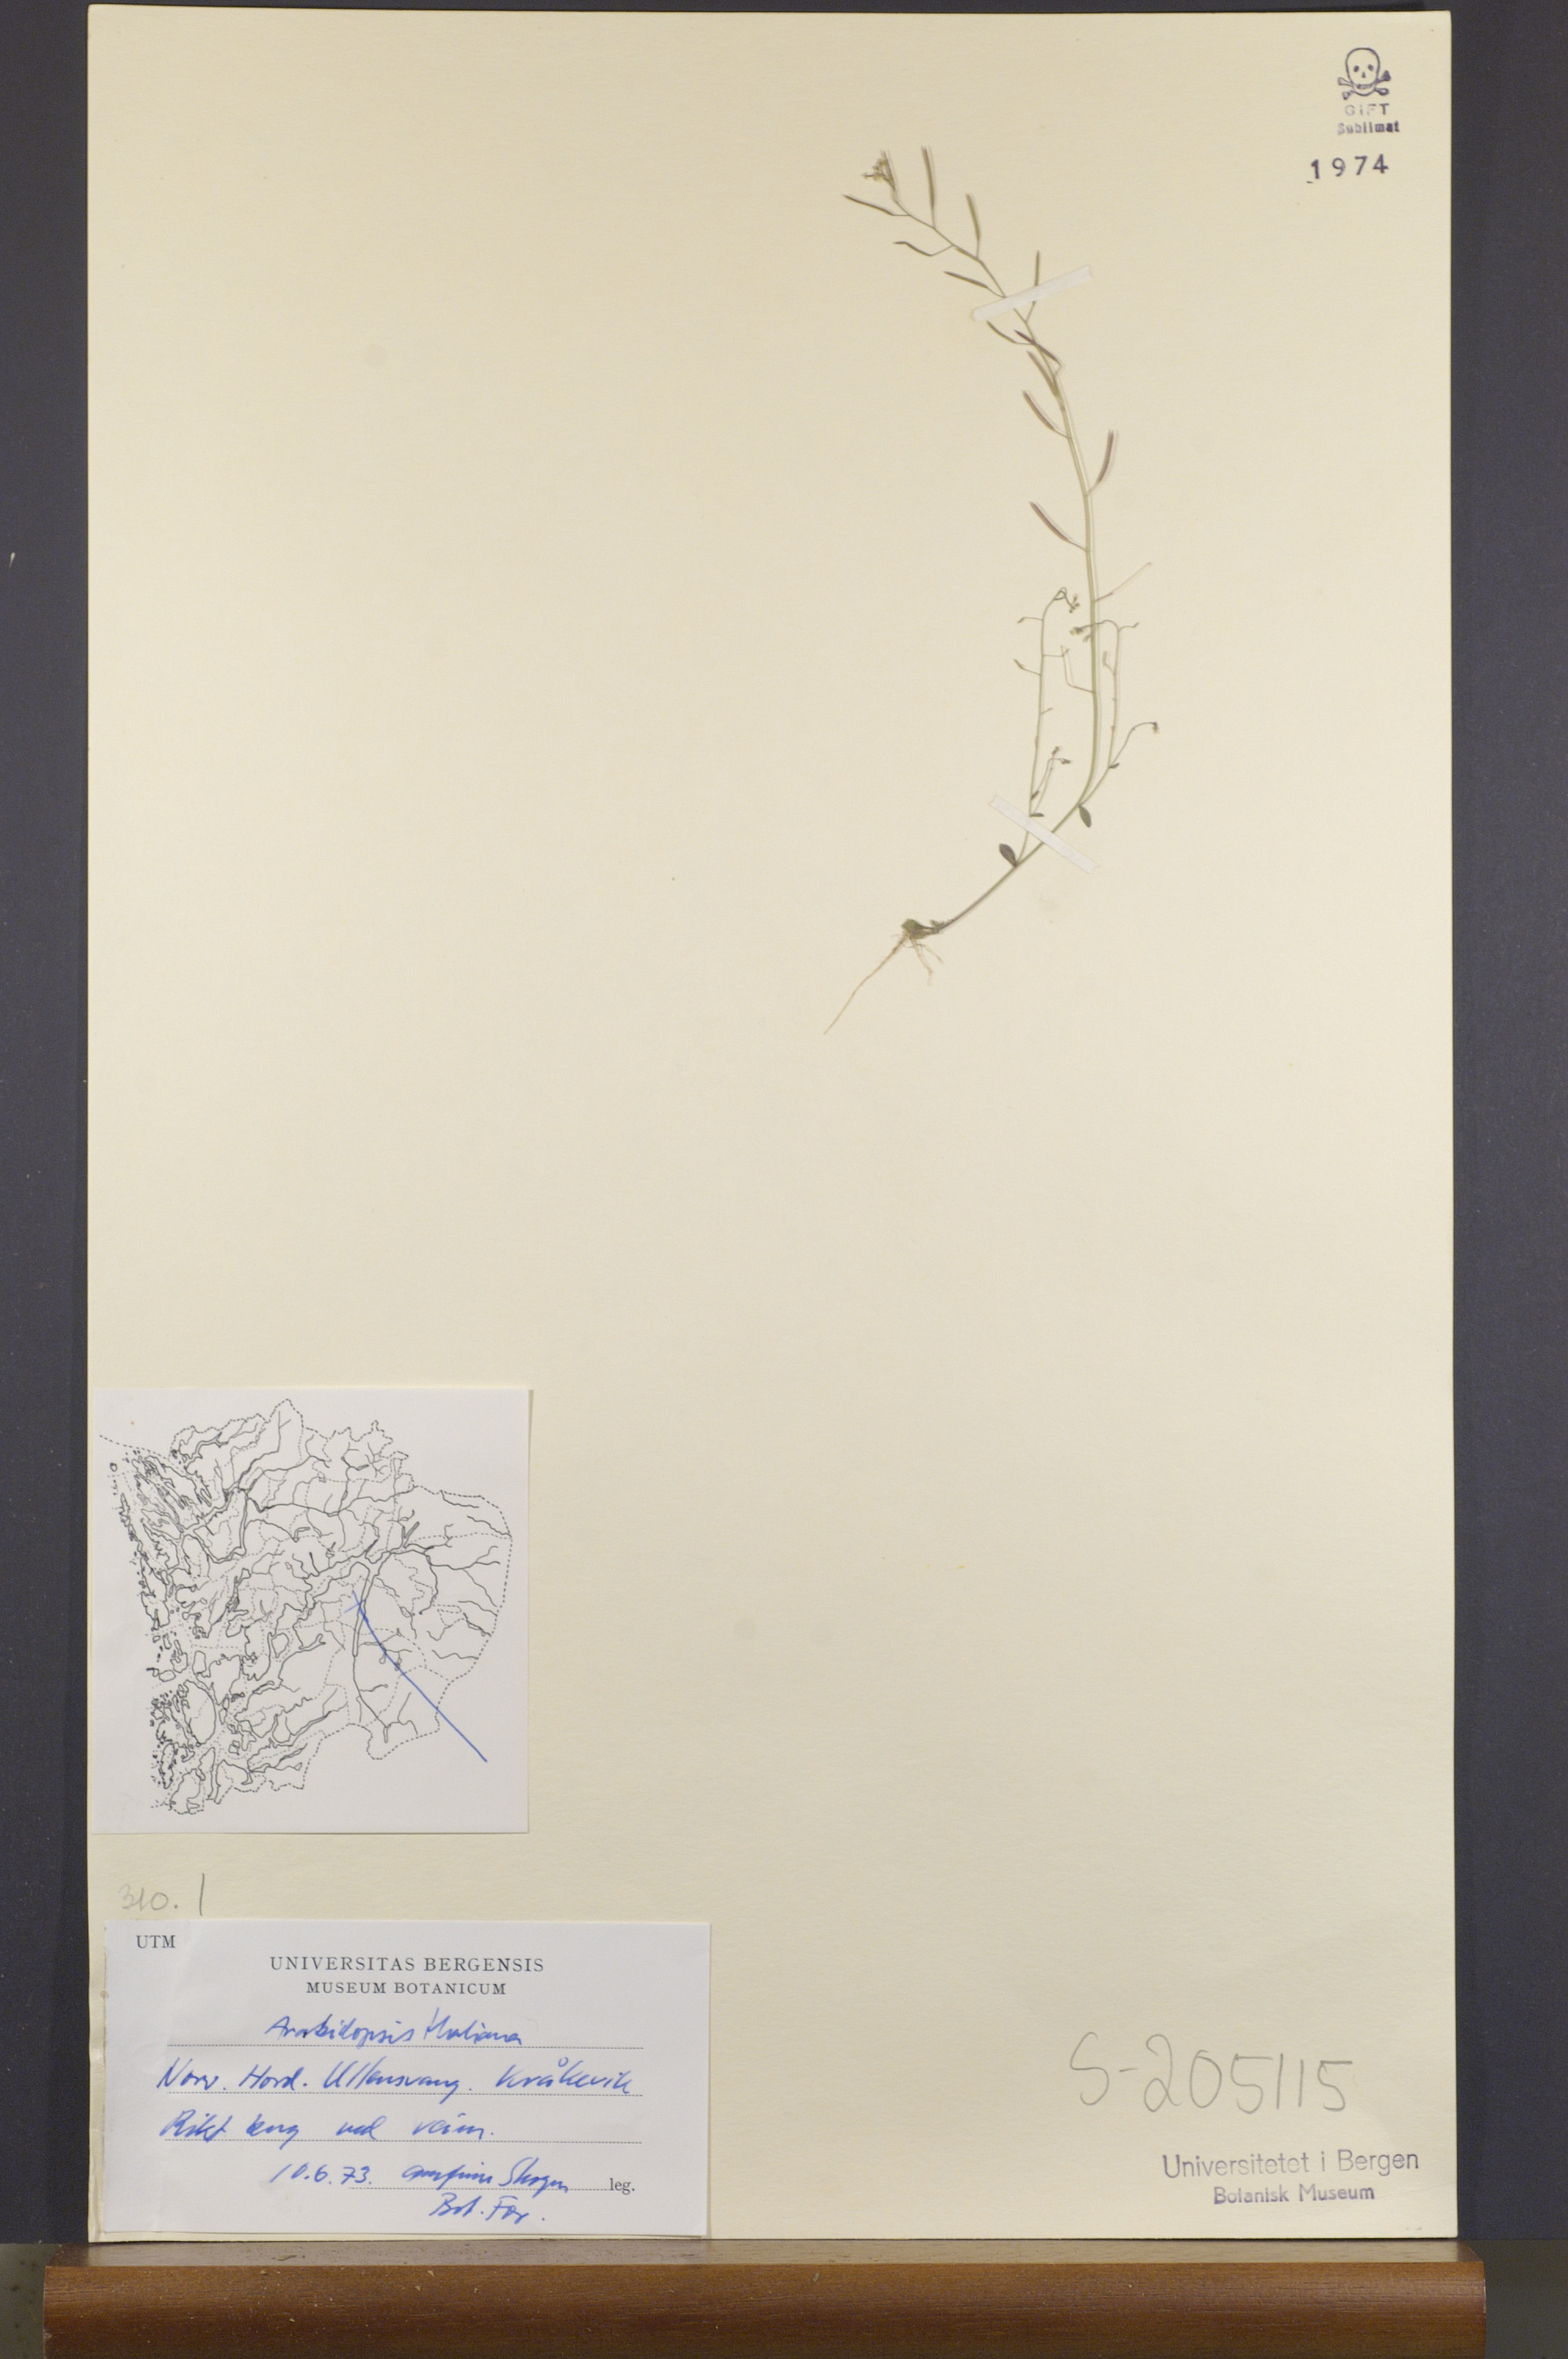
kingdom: Plantae
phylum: Tracheophyta
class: Magnoliopsida
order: Brassicales
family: Brassicaceae
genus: Arabidopsis
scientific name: Arabidopsis thaliana
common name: Thale cress
